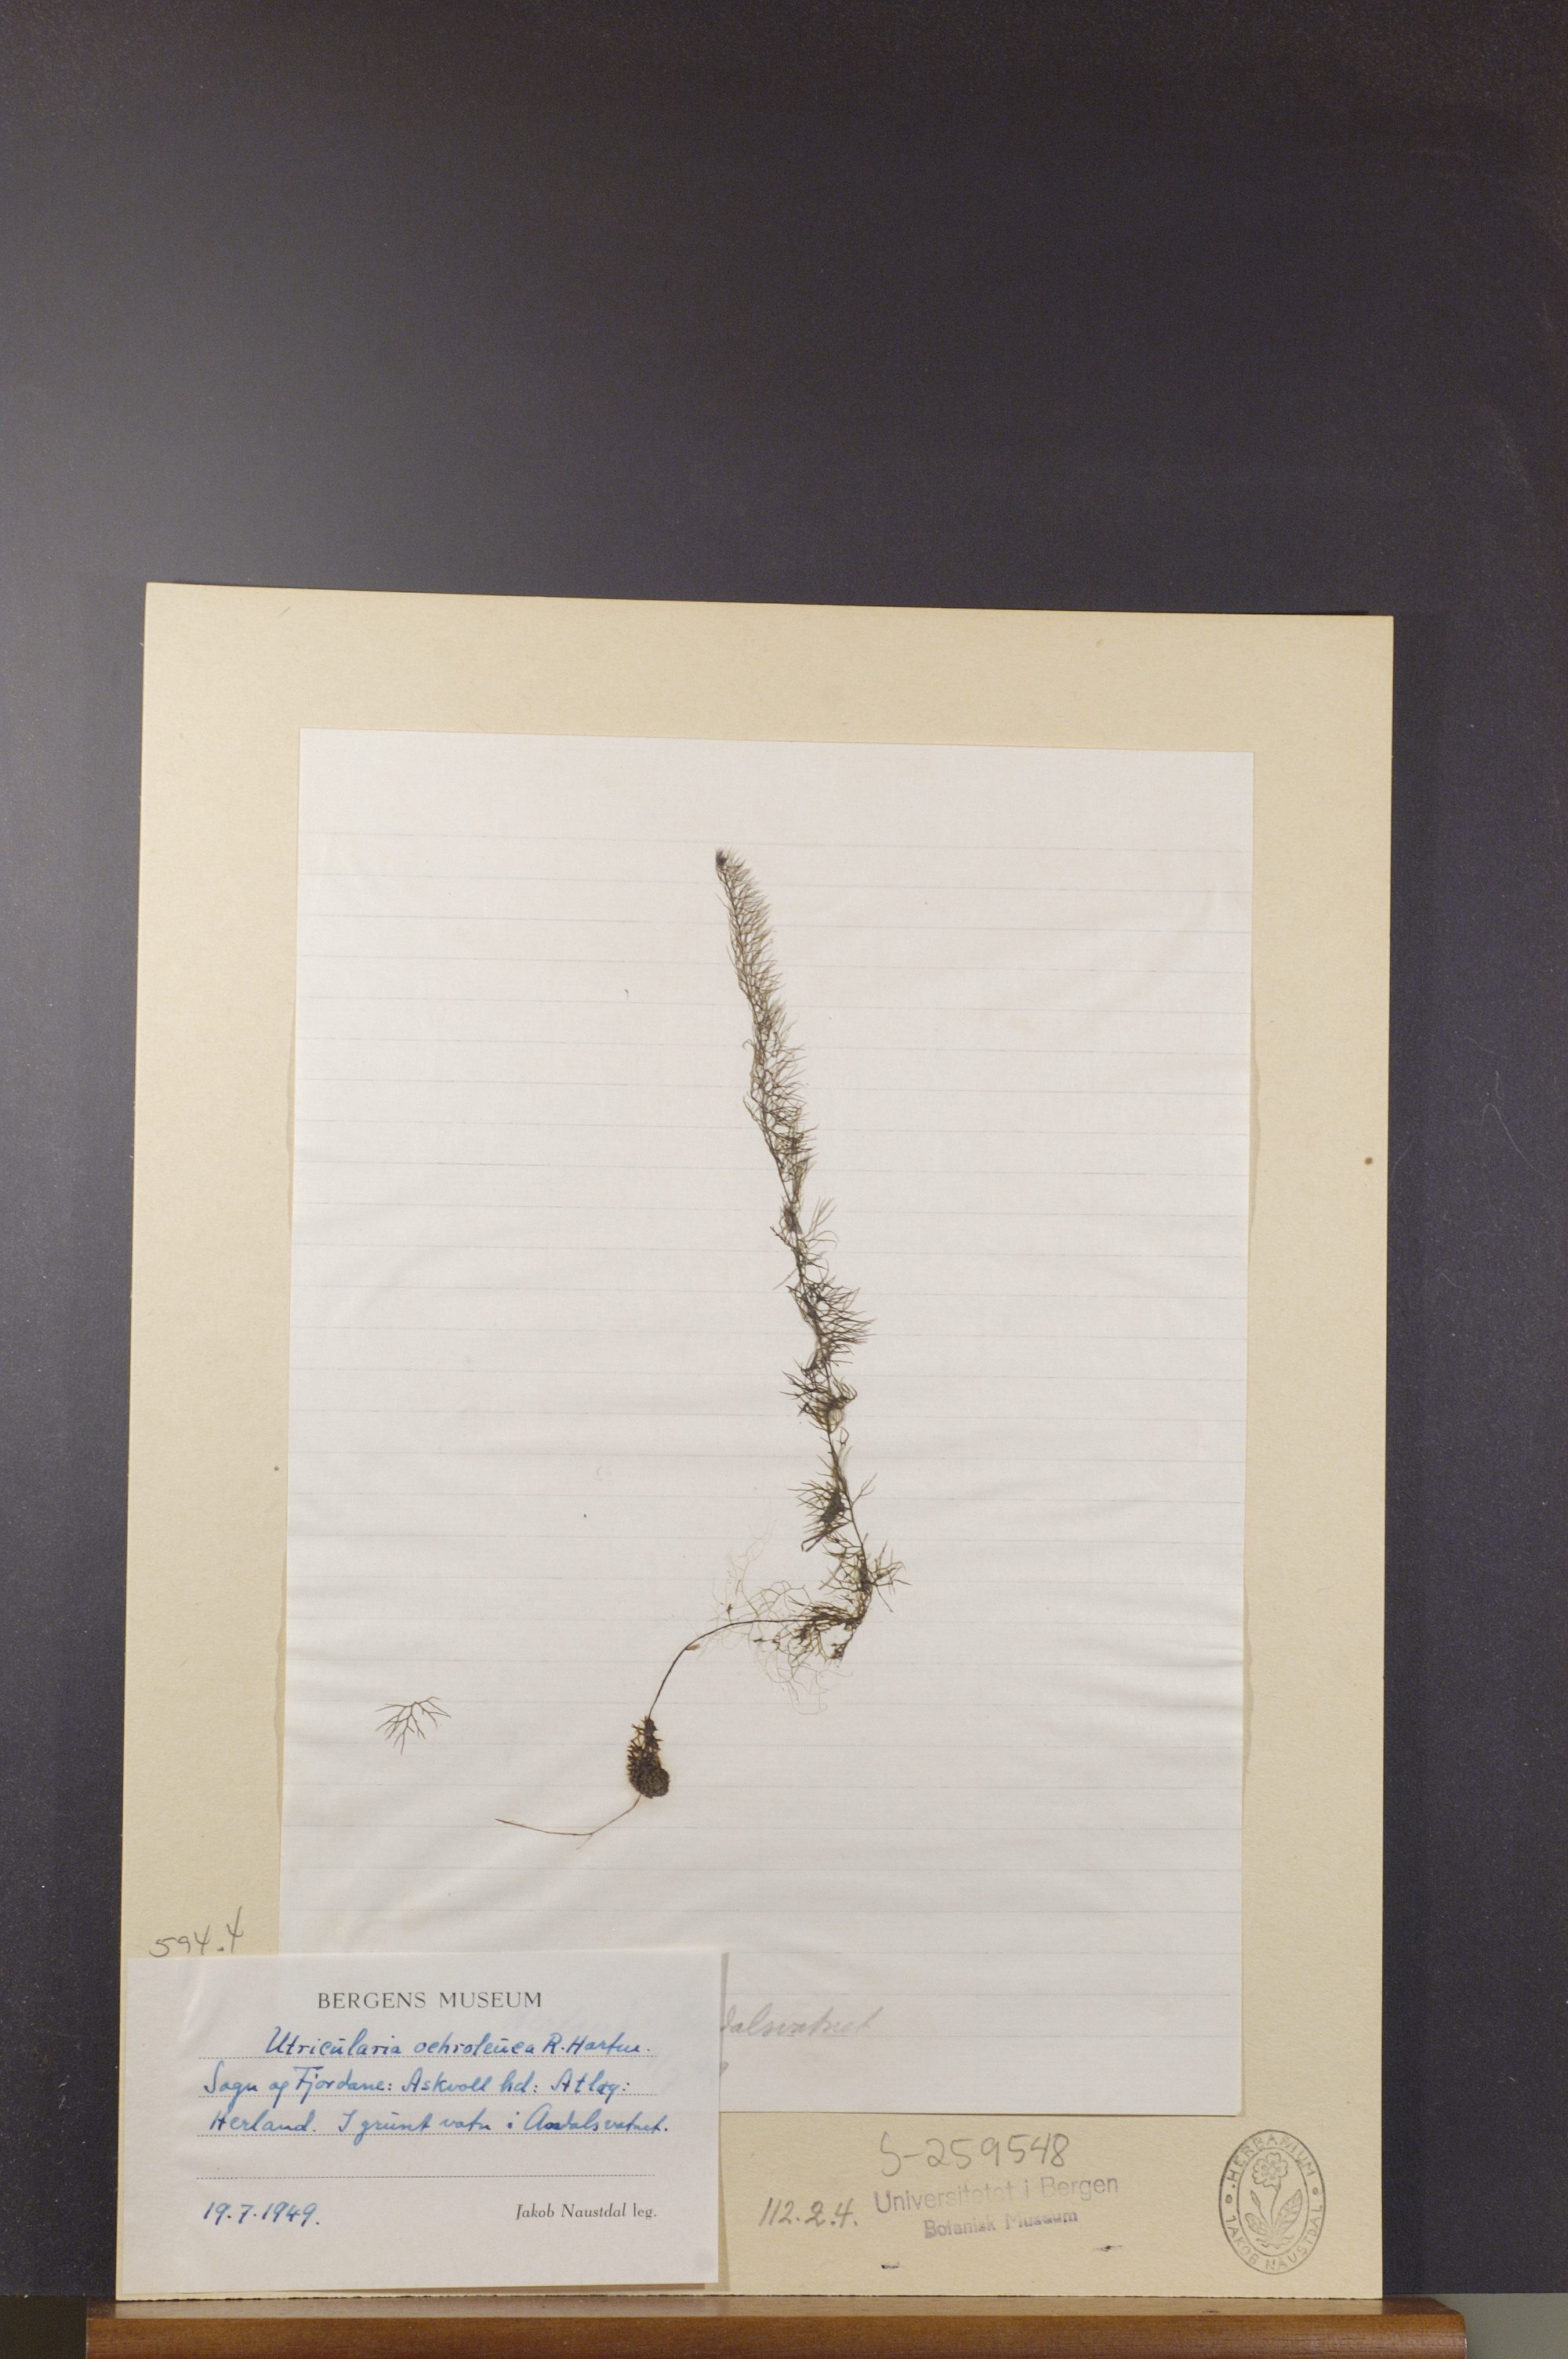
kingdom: Plantae
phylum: Tracheophyta
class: Magnoliopsida
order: Lamiales
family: Lentibulariaceae
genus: Utricularia
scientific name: Utricularia ochroleuca
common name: Pale bladderwort
